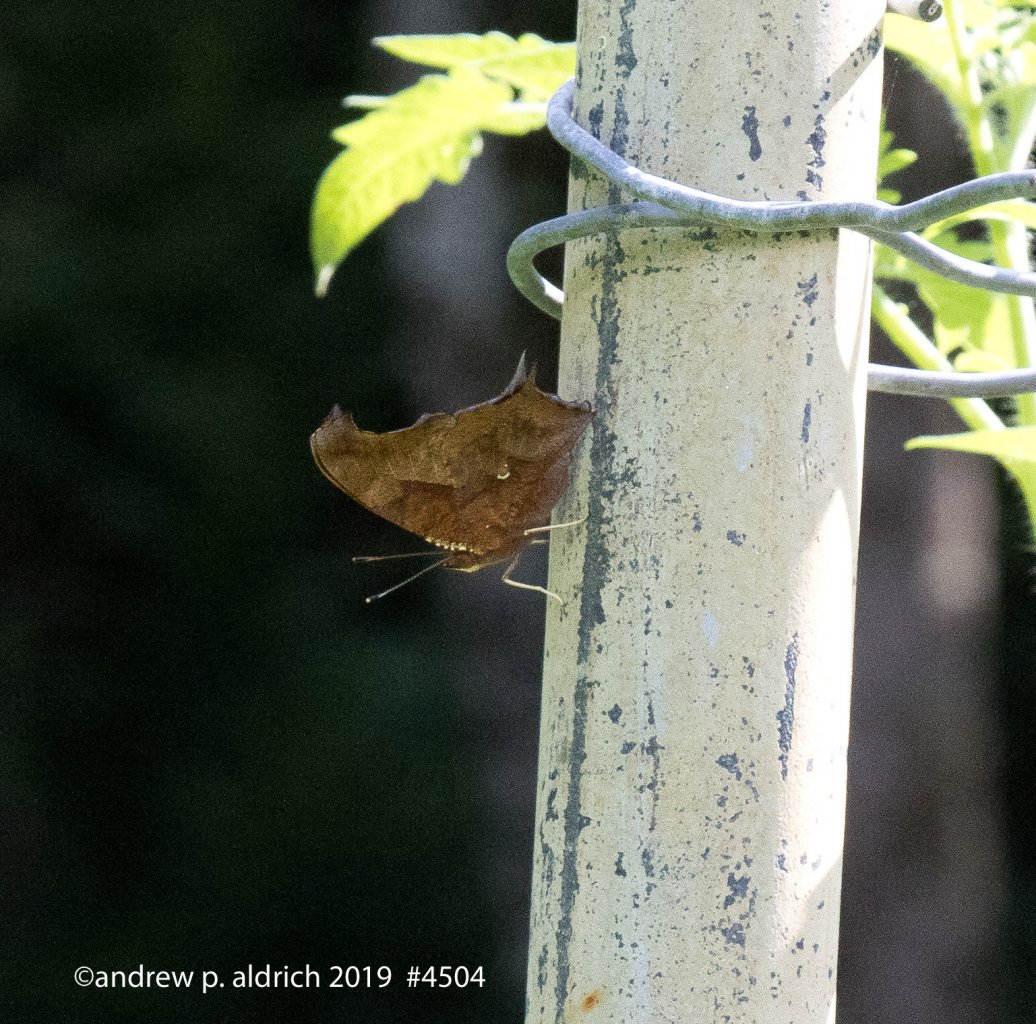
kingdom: Animalia
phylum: Arthropoda
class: Insecta
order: Lepidoptera
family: Nymphalidae
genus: Polygonia
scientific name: Polygonia interrogationis
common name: Question Mark
